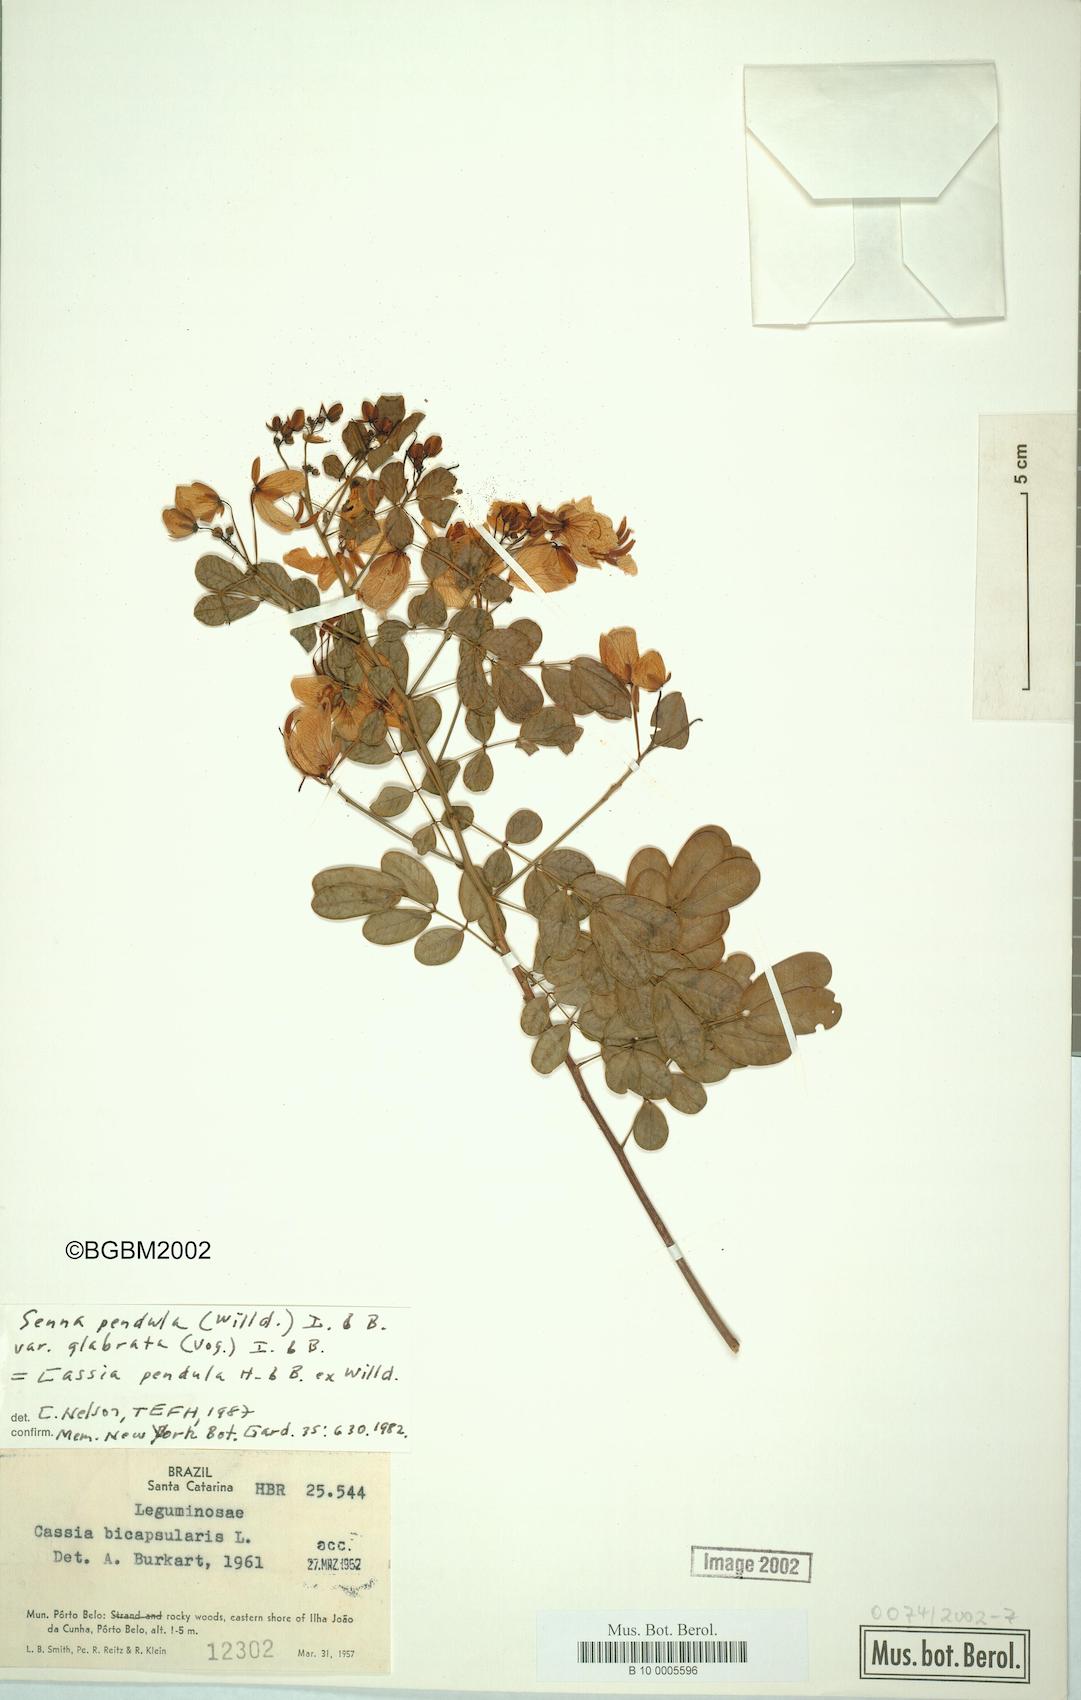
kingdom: Plantae
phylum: Tracheophyta
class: Magnoliopsida
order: Fabales
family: Fabaceae
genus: Senna
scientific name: Senna pendula
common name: Easter cassia
